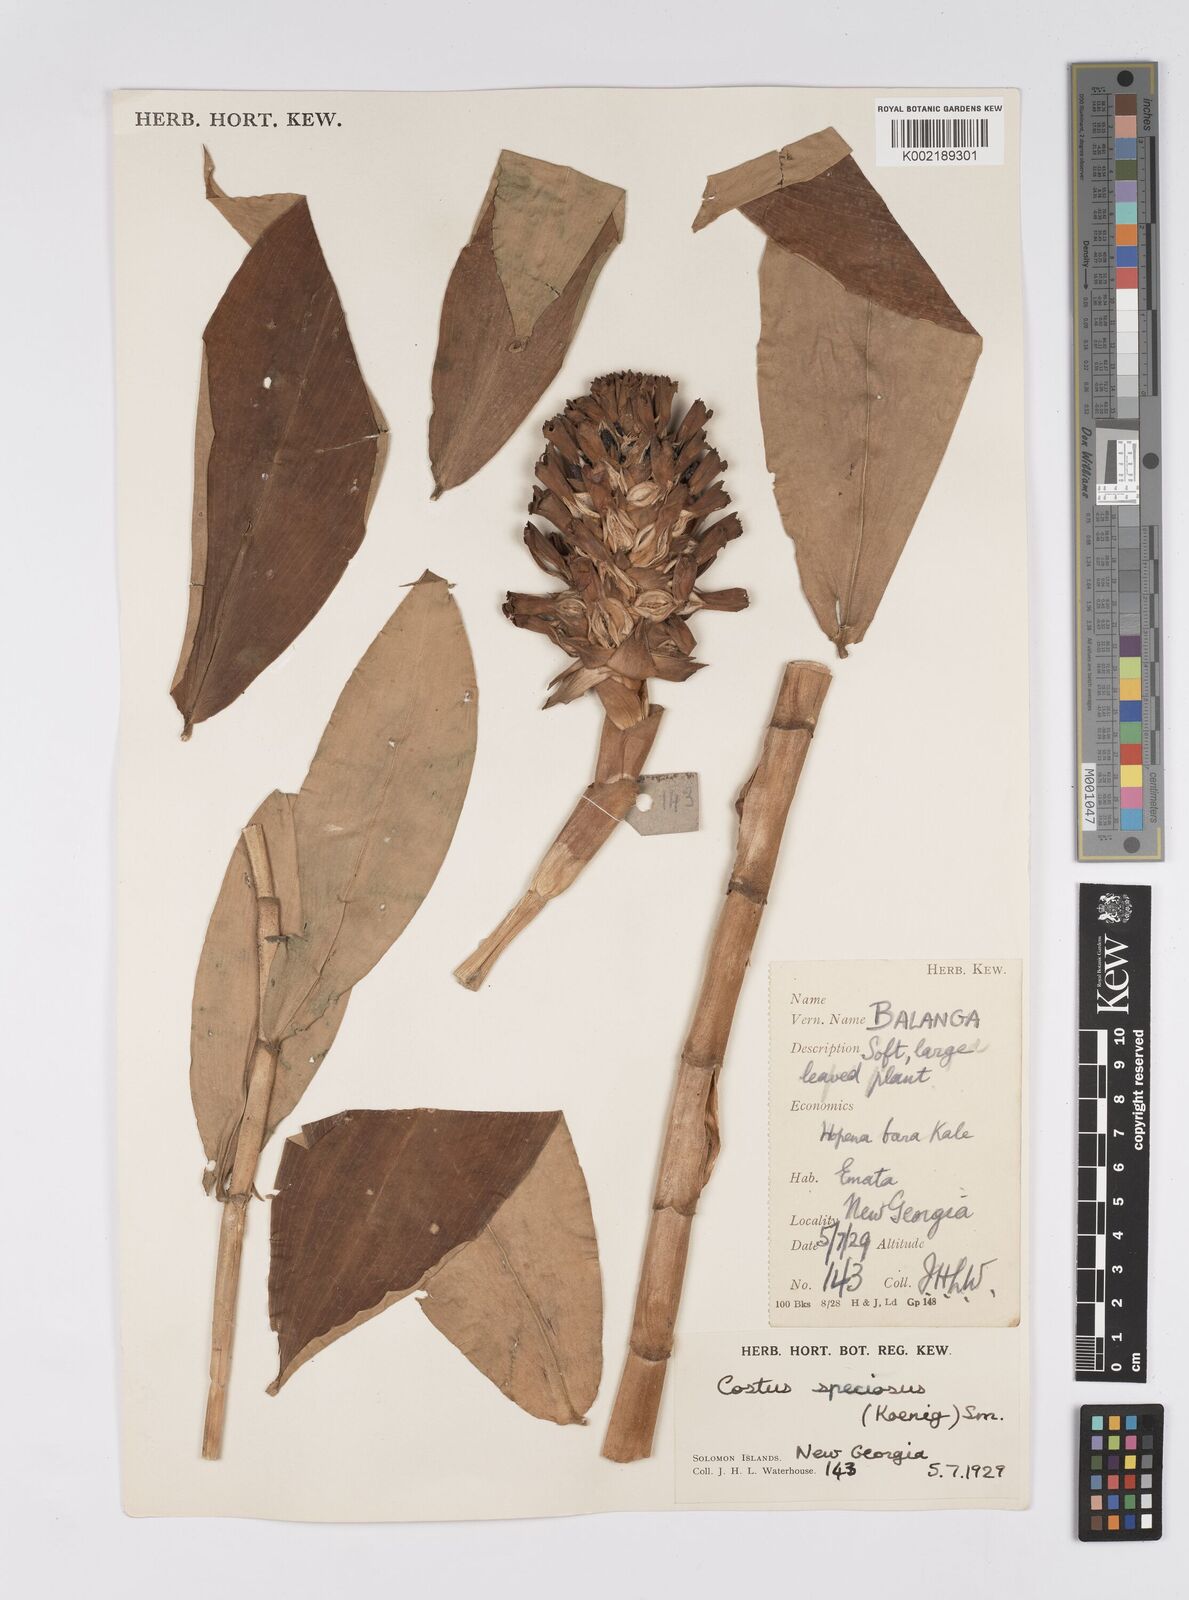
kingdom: Plantae
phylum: Tracheophyta
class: Liliopsida
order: Zingiberales
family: Costaceae
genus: Hellenia
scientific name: Hellenia speciosa
